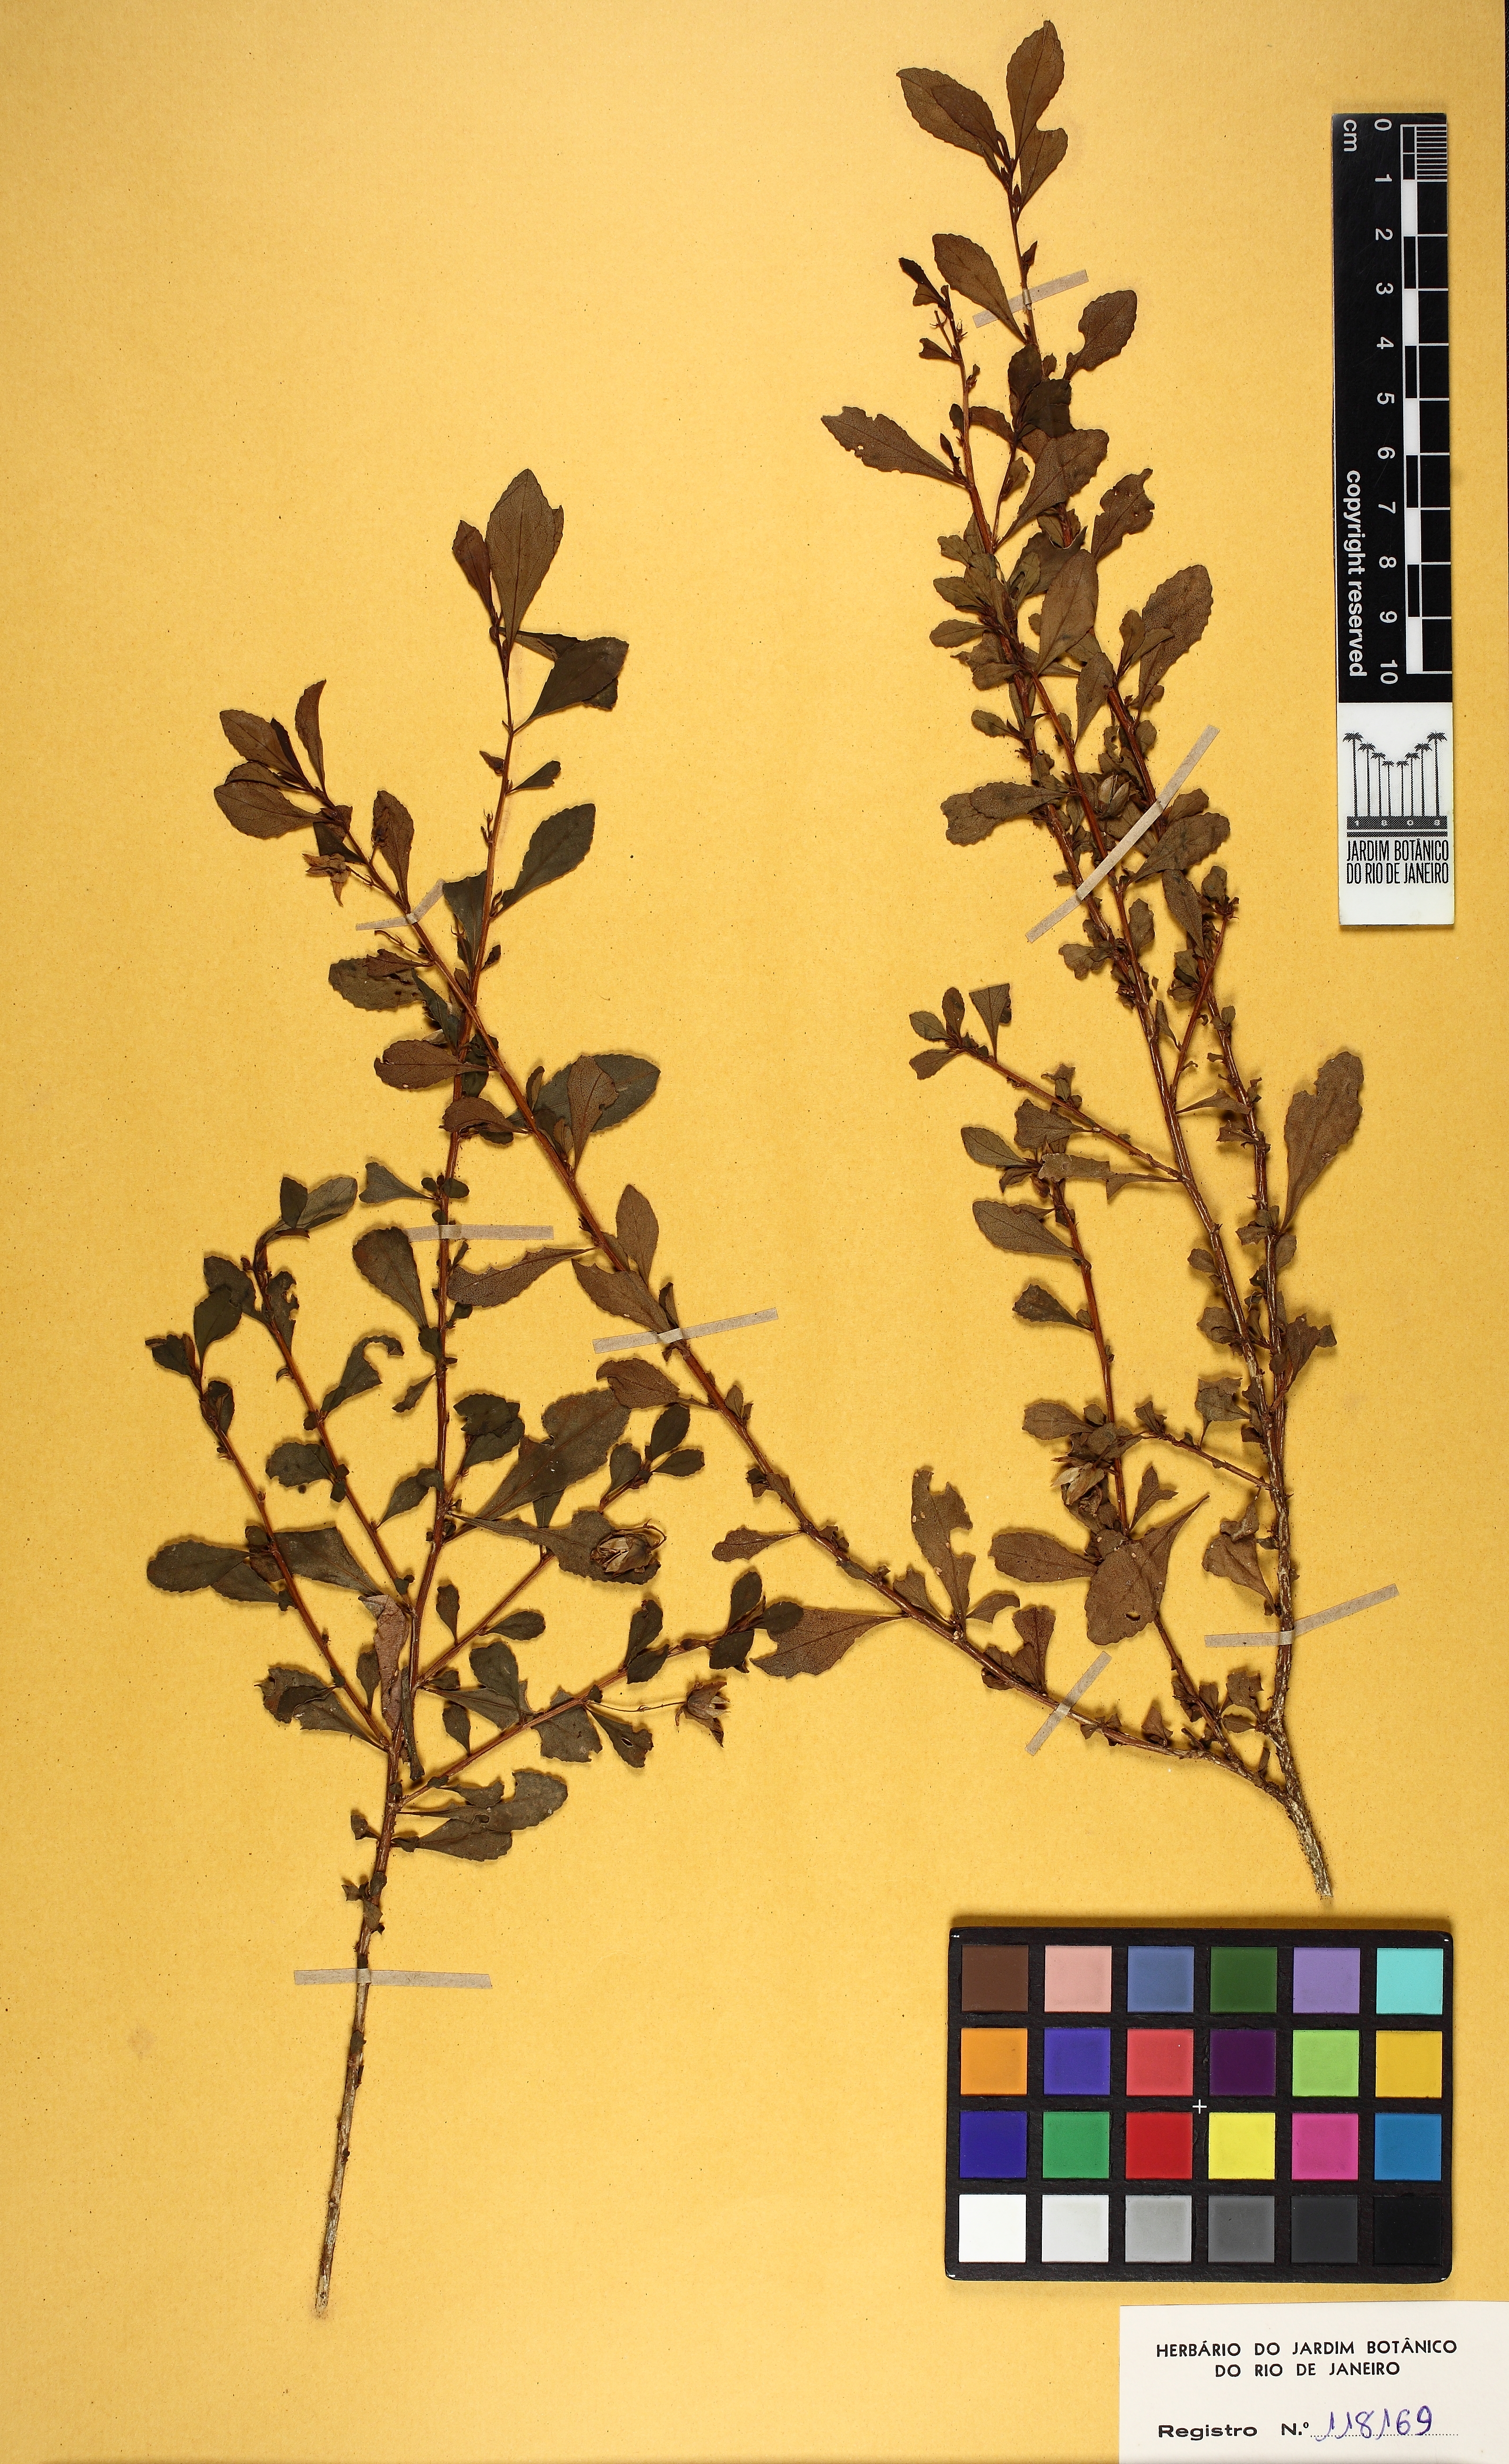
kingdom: Plantae
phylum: Tracheophyta
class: Magnoliopsida
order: Malpighiales
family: Violaceae
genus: Schweiggeria
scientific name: Schweiggeria
